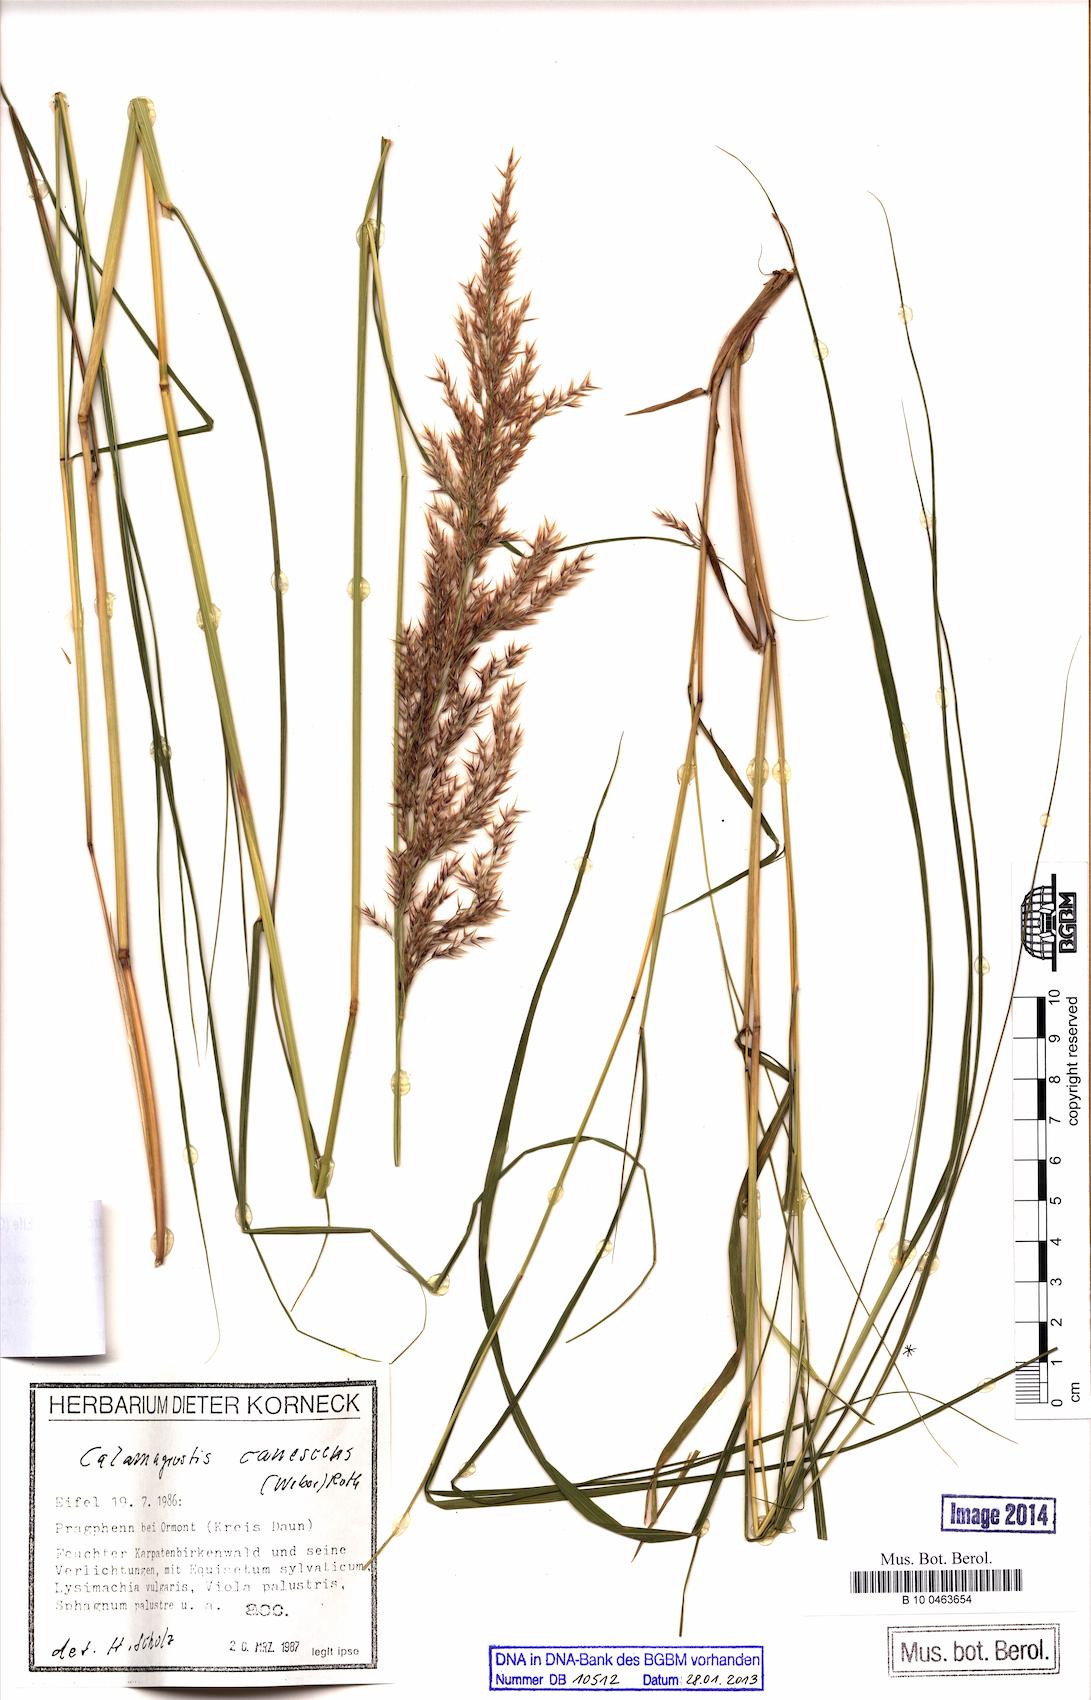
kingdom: Plantae
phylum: Tracheophyta
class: Liliopsida
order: Poales
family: Poaceae
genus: Calamagrostis
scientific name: Calamagrostis canescens
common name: Purple small-reed
